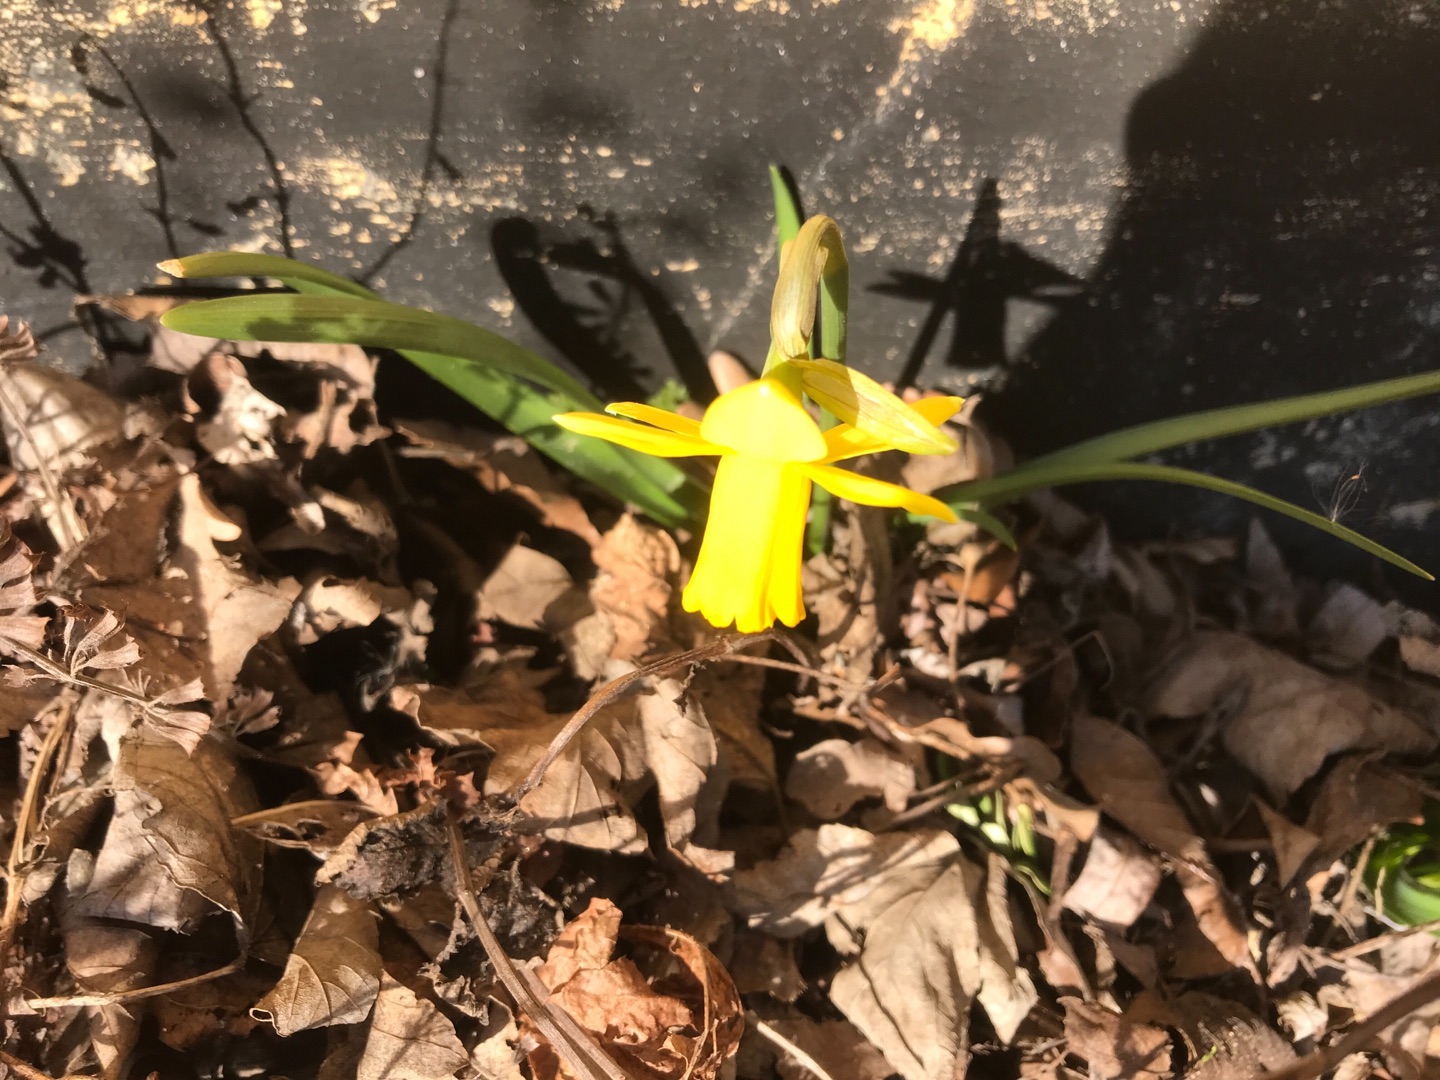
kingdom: Plantae
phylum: Tracheophyta
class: Liliopsida
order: Asparagales
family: Amaryllidaceae
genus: Narcissus
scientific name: Narcissus cyclazetta
